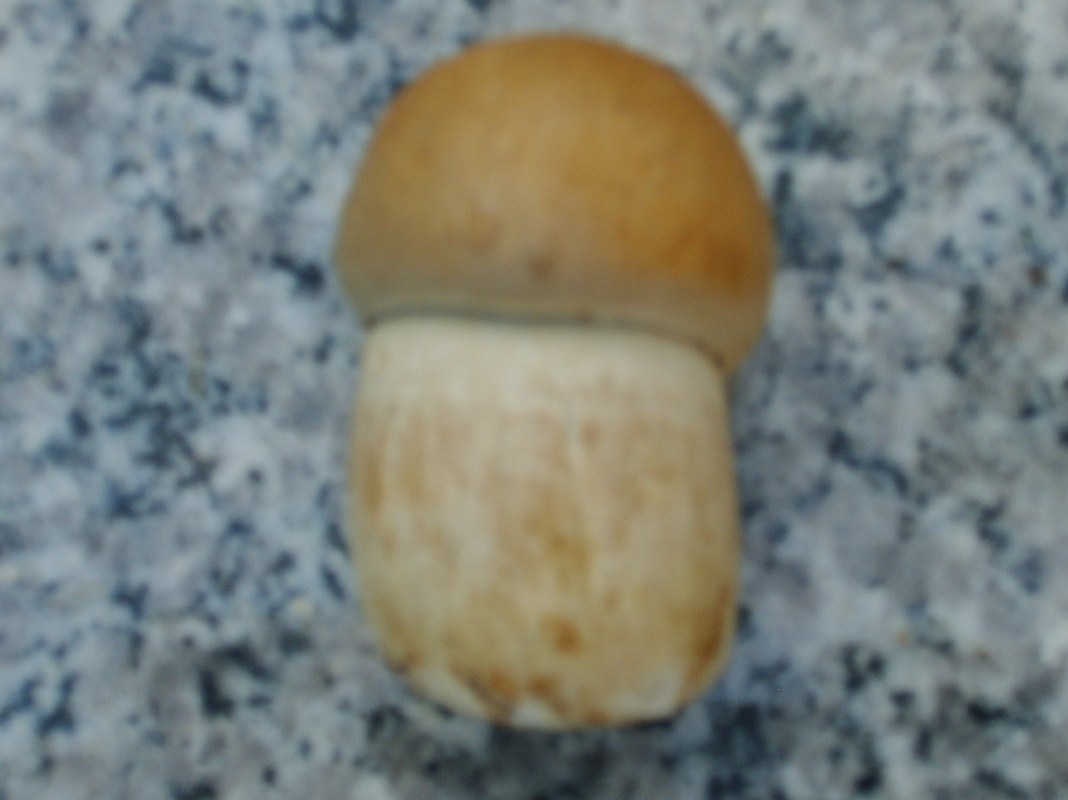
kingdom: Fungi
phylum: Basidiomycota
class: Agaricomycetes
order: Boletales
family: Boletaceae
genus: Boletus
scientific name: Boletus reticulatus
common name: sommer-rørhat
